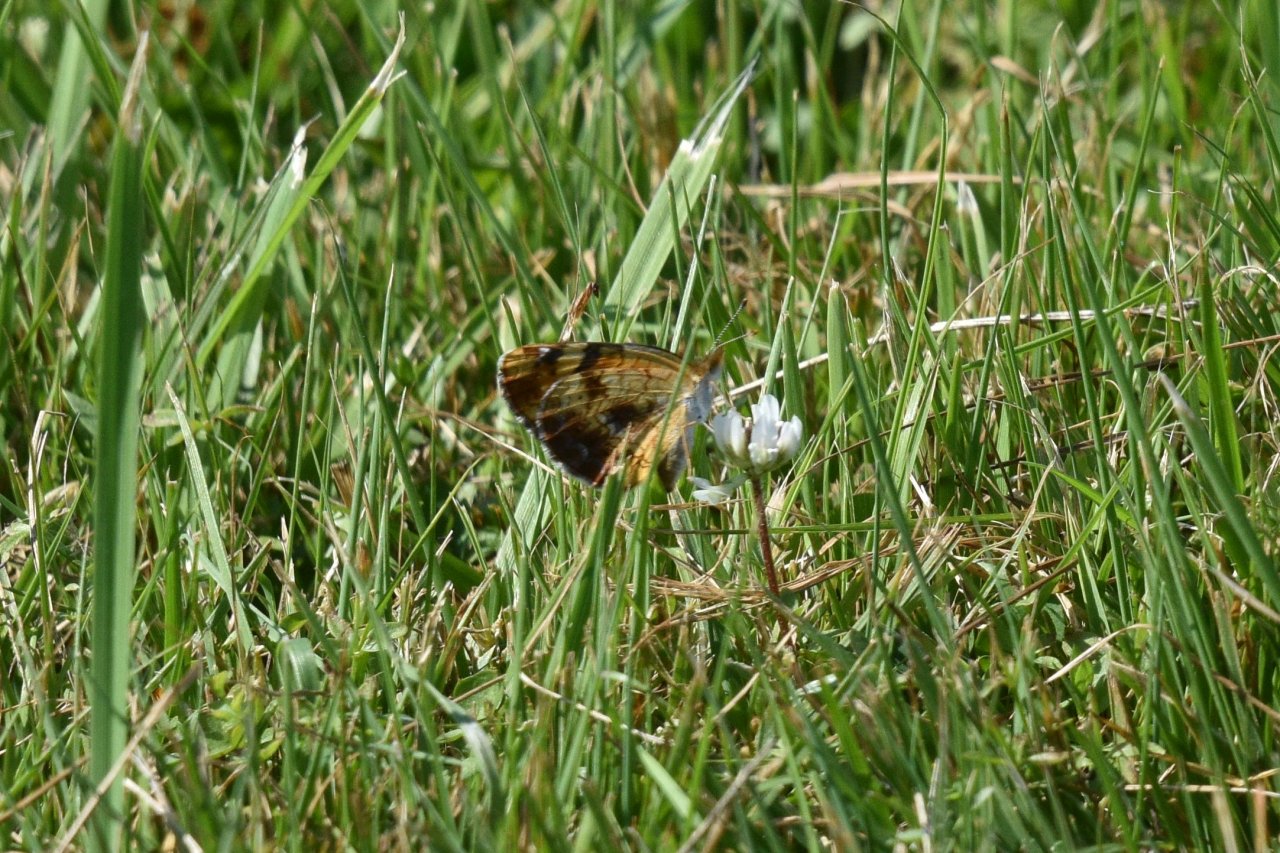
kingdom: Animalia
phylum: Arthropoda
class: Insecta
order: Lepidoptera
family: Nymphalidae
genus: Phyciodes
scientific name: Phyciodes tharos
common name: Northern Crescent
